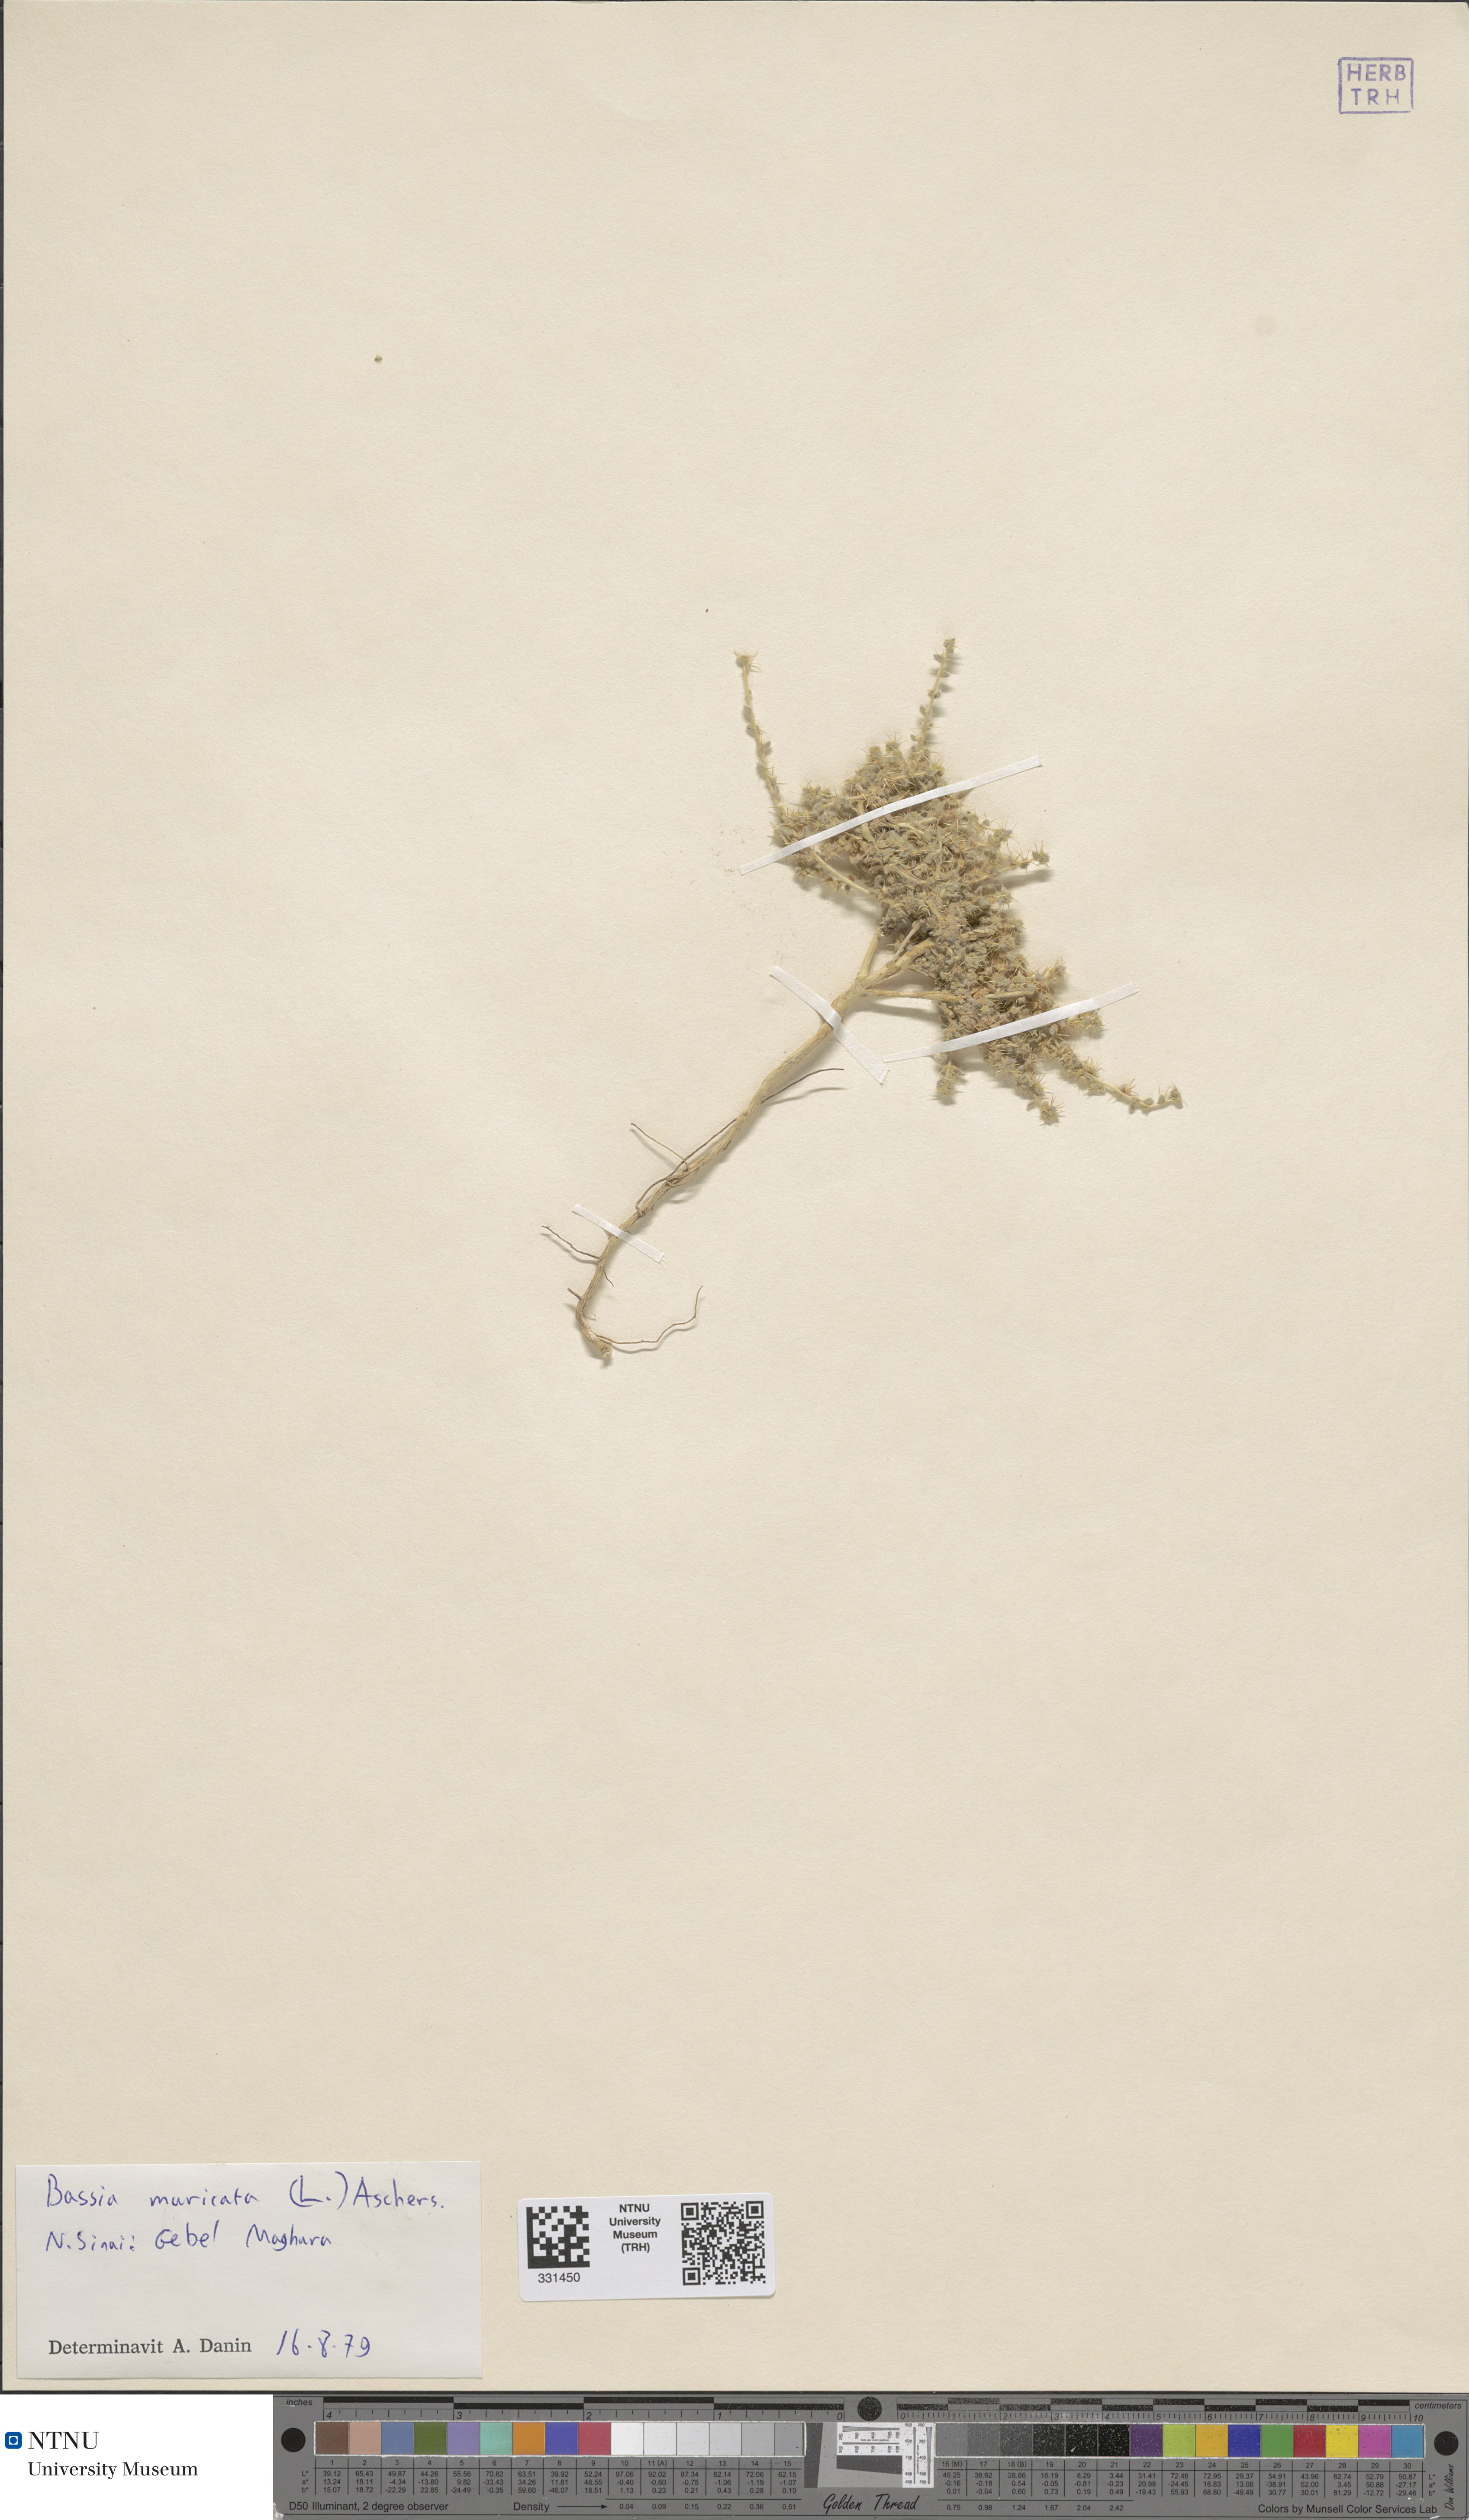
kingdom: Plantae
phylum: Tracheophyta
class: Magnoliopsida
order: Caryophyllales
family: Amaranthaceae
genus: Bassia
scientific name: Bassia muricata
